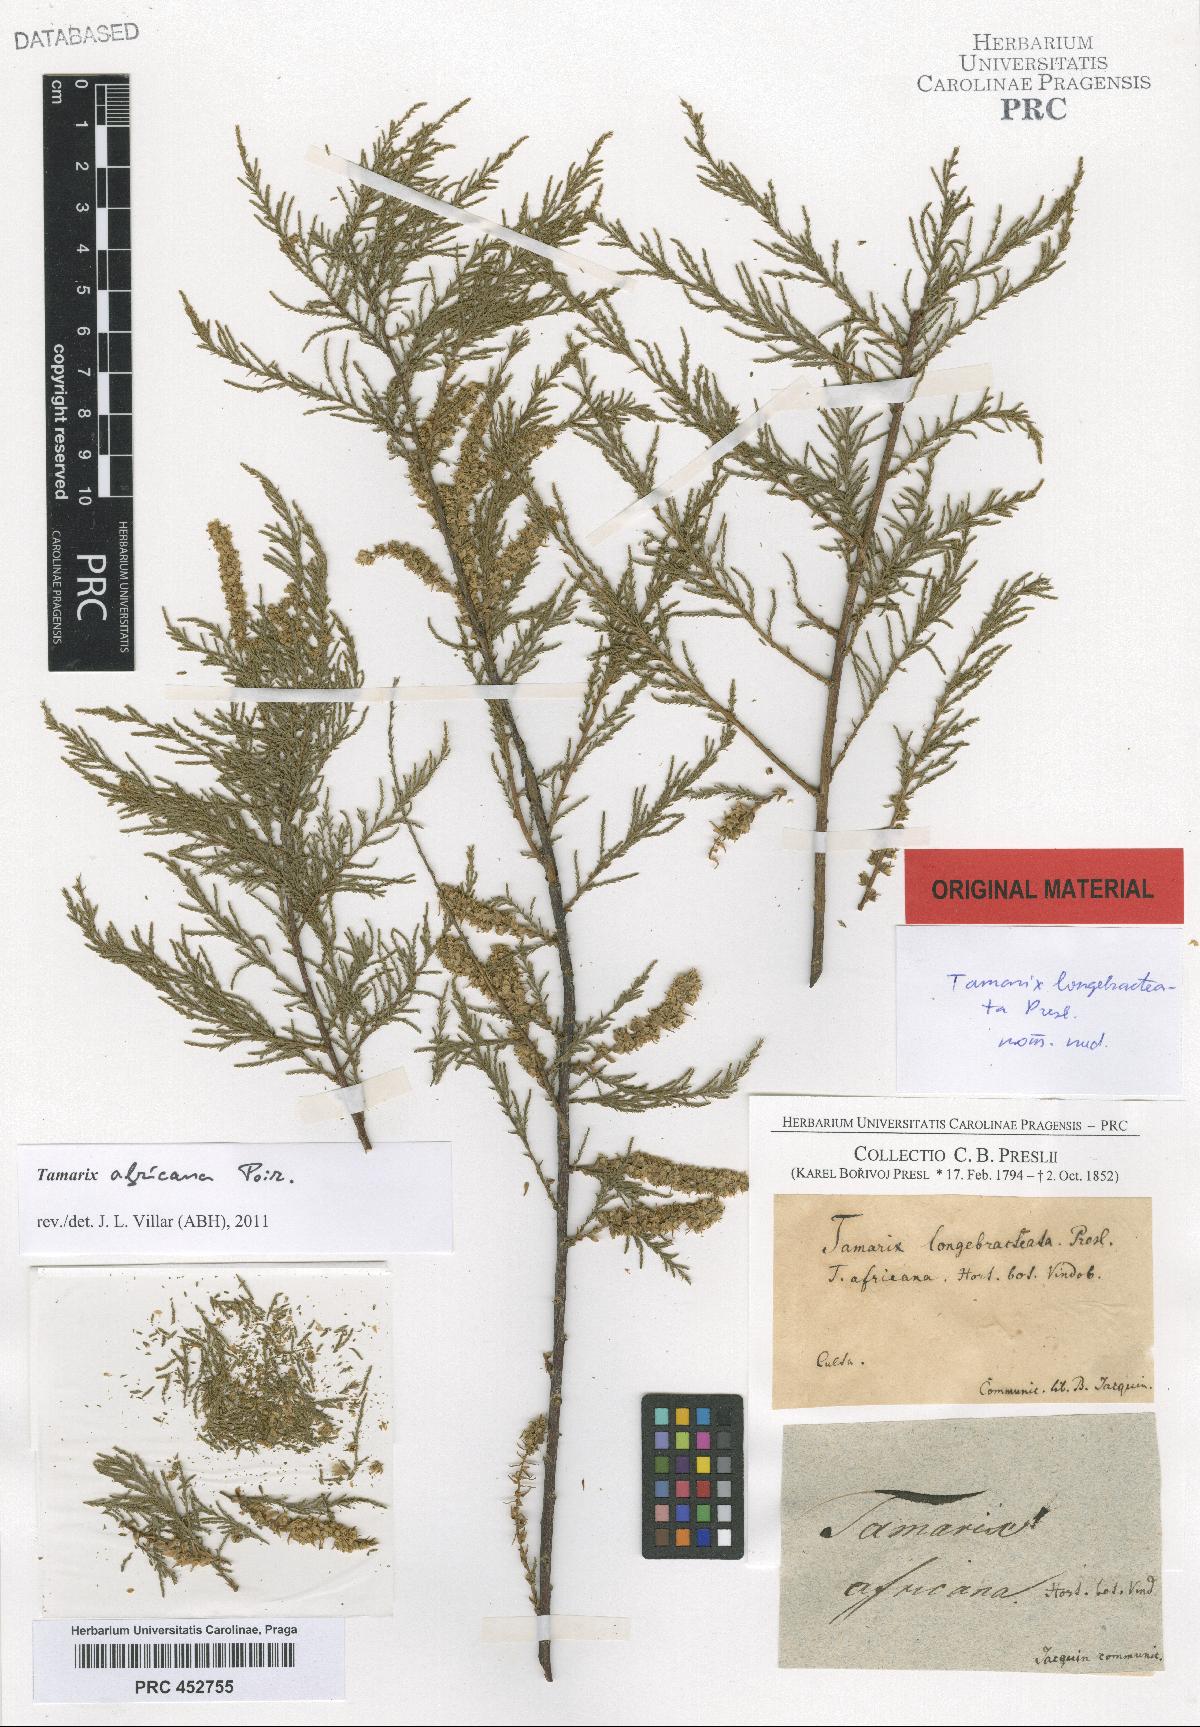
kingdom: Plantae
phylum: Tracheophyta
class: Magnoliopsida
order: Caryophyllales
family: Tamaricaceae
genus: Tamarix
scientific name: Tamarix
